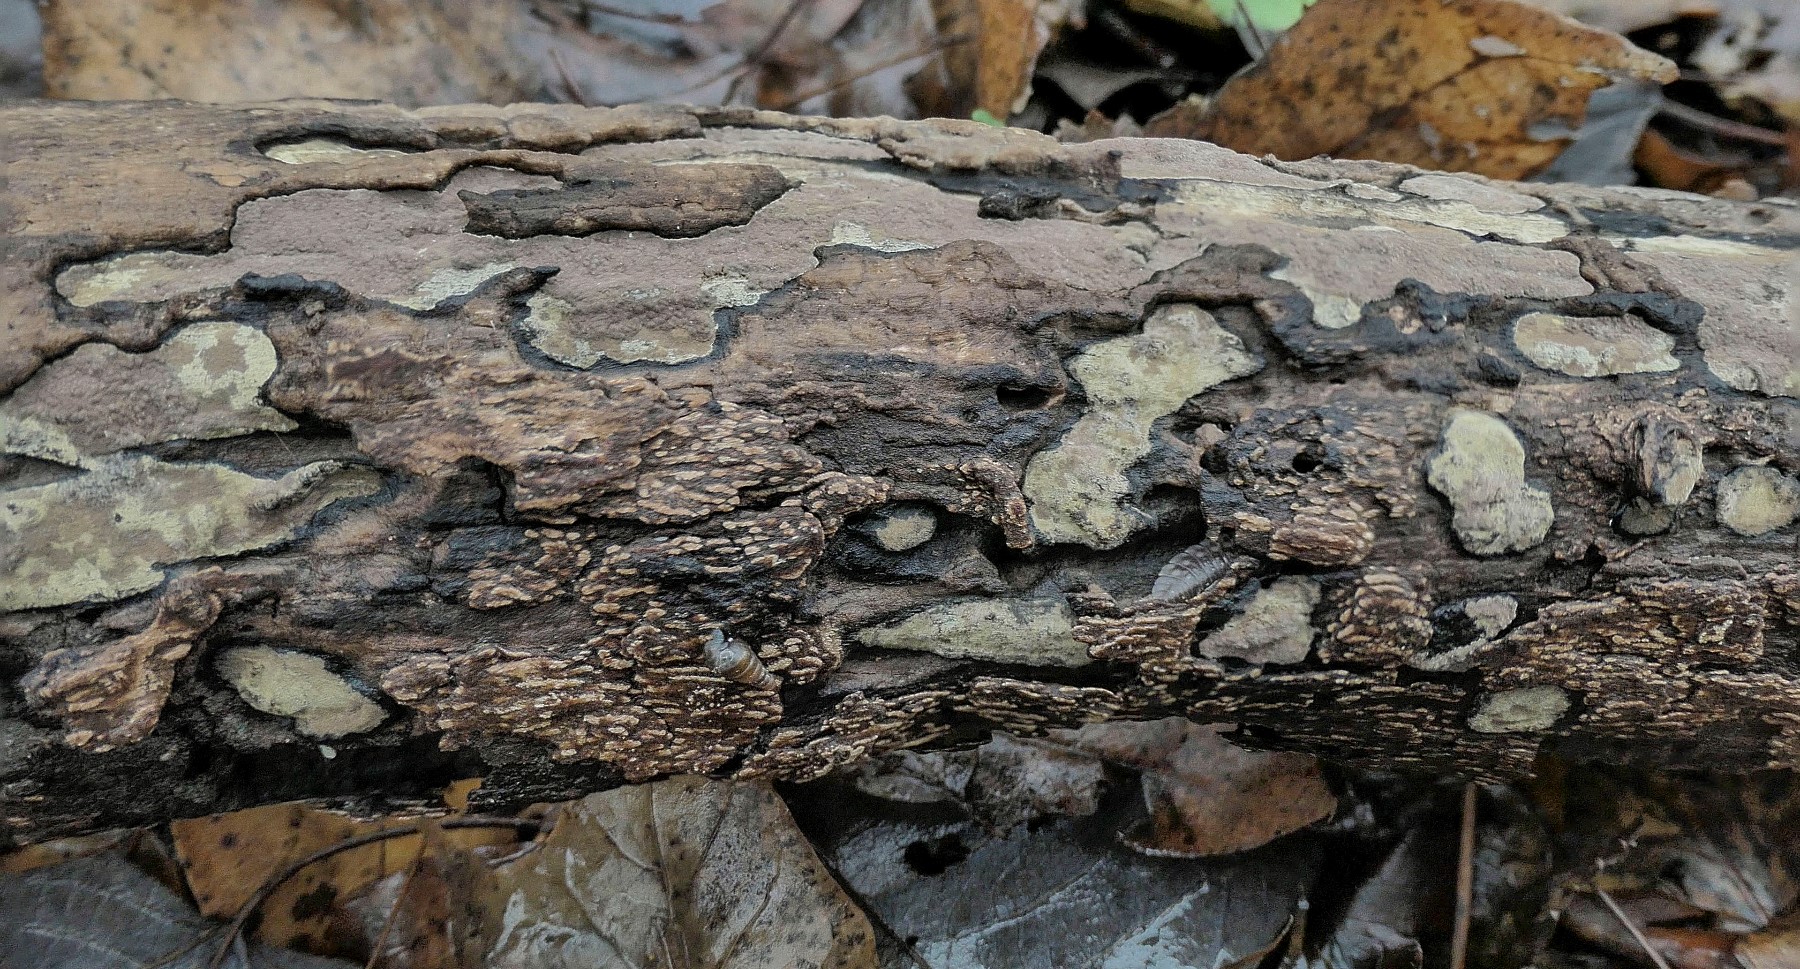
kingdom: Fungi
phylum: Ascomycota
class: Sordariomycetes
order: Xylariales
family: Hypoxylaceae
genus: Hypoxylon
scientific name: Hypoxylon petriniae
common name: nedsænket kulbær
